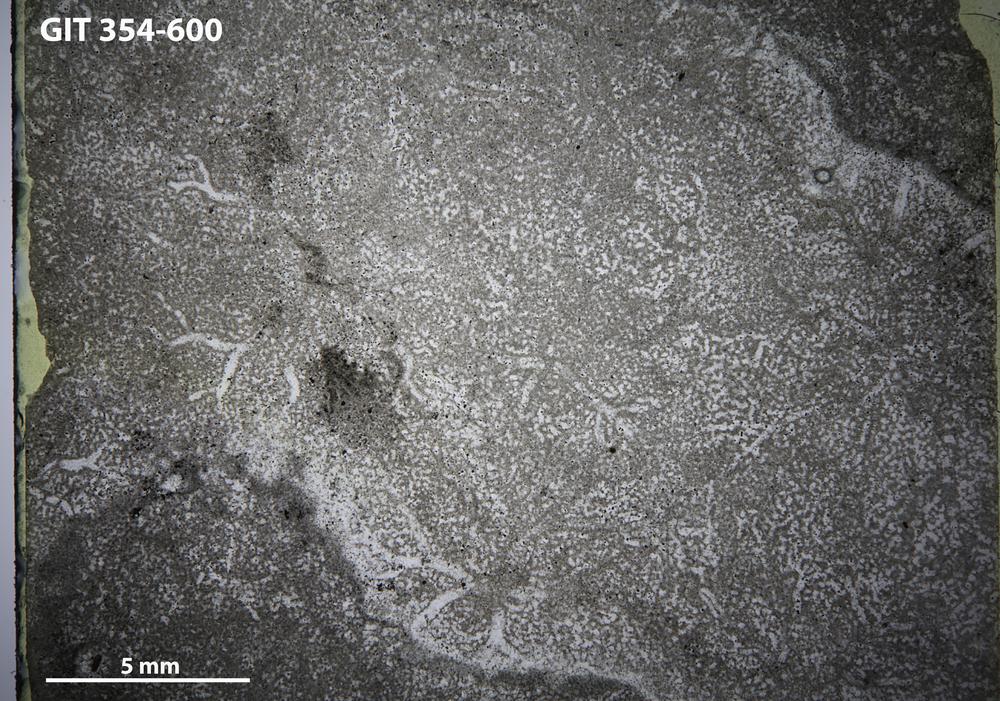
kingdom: Animalia
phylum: Porifera
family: Ecclimadictyidae
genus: Ecclimadictyon
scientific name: Ecclimadictyon
